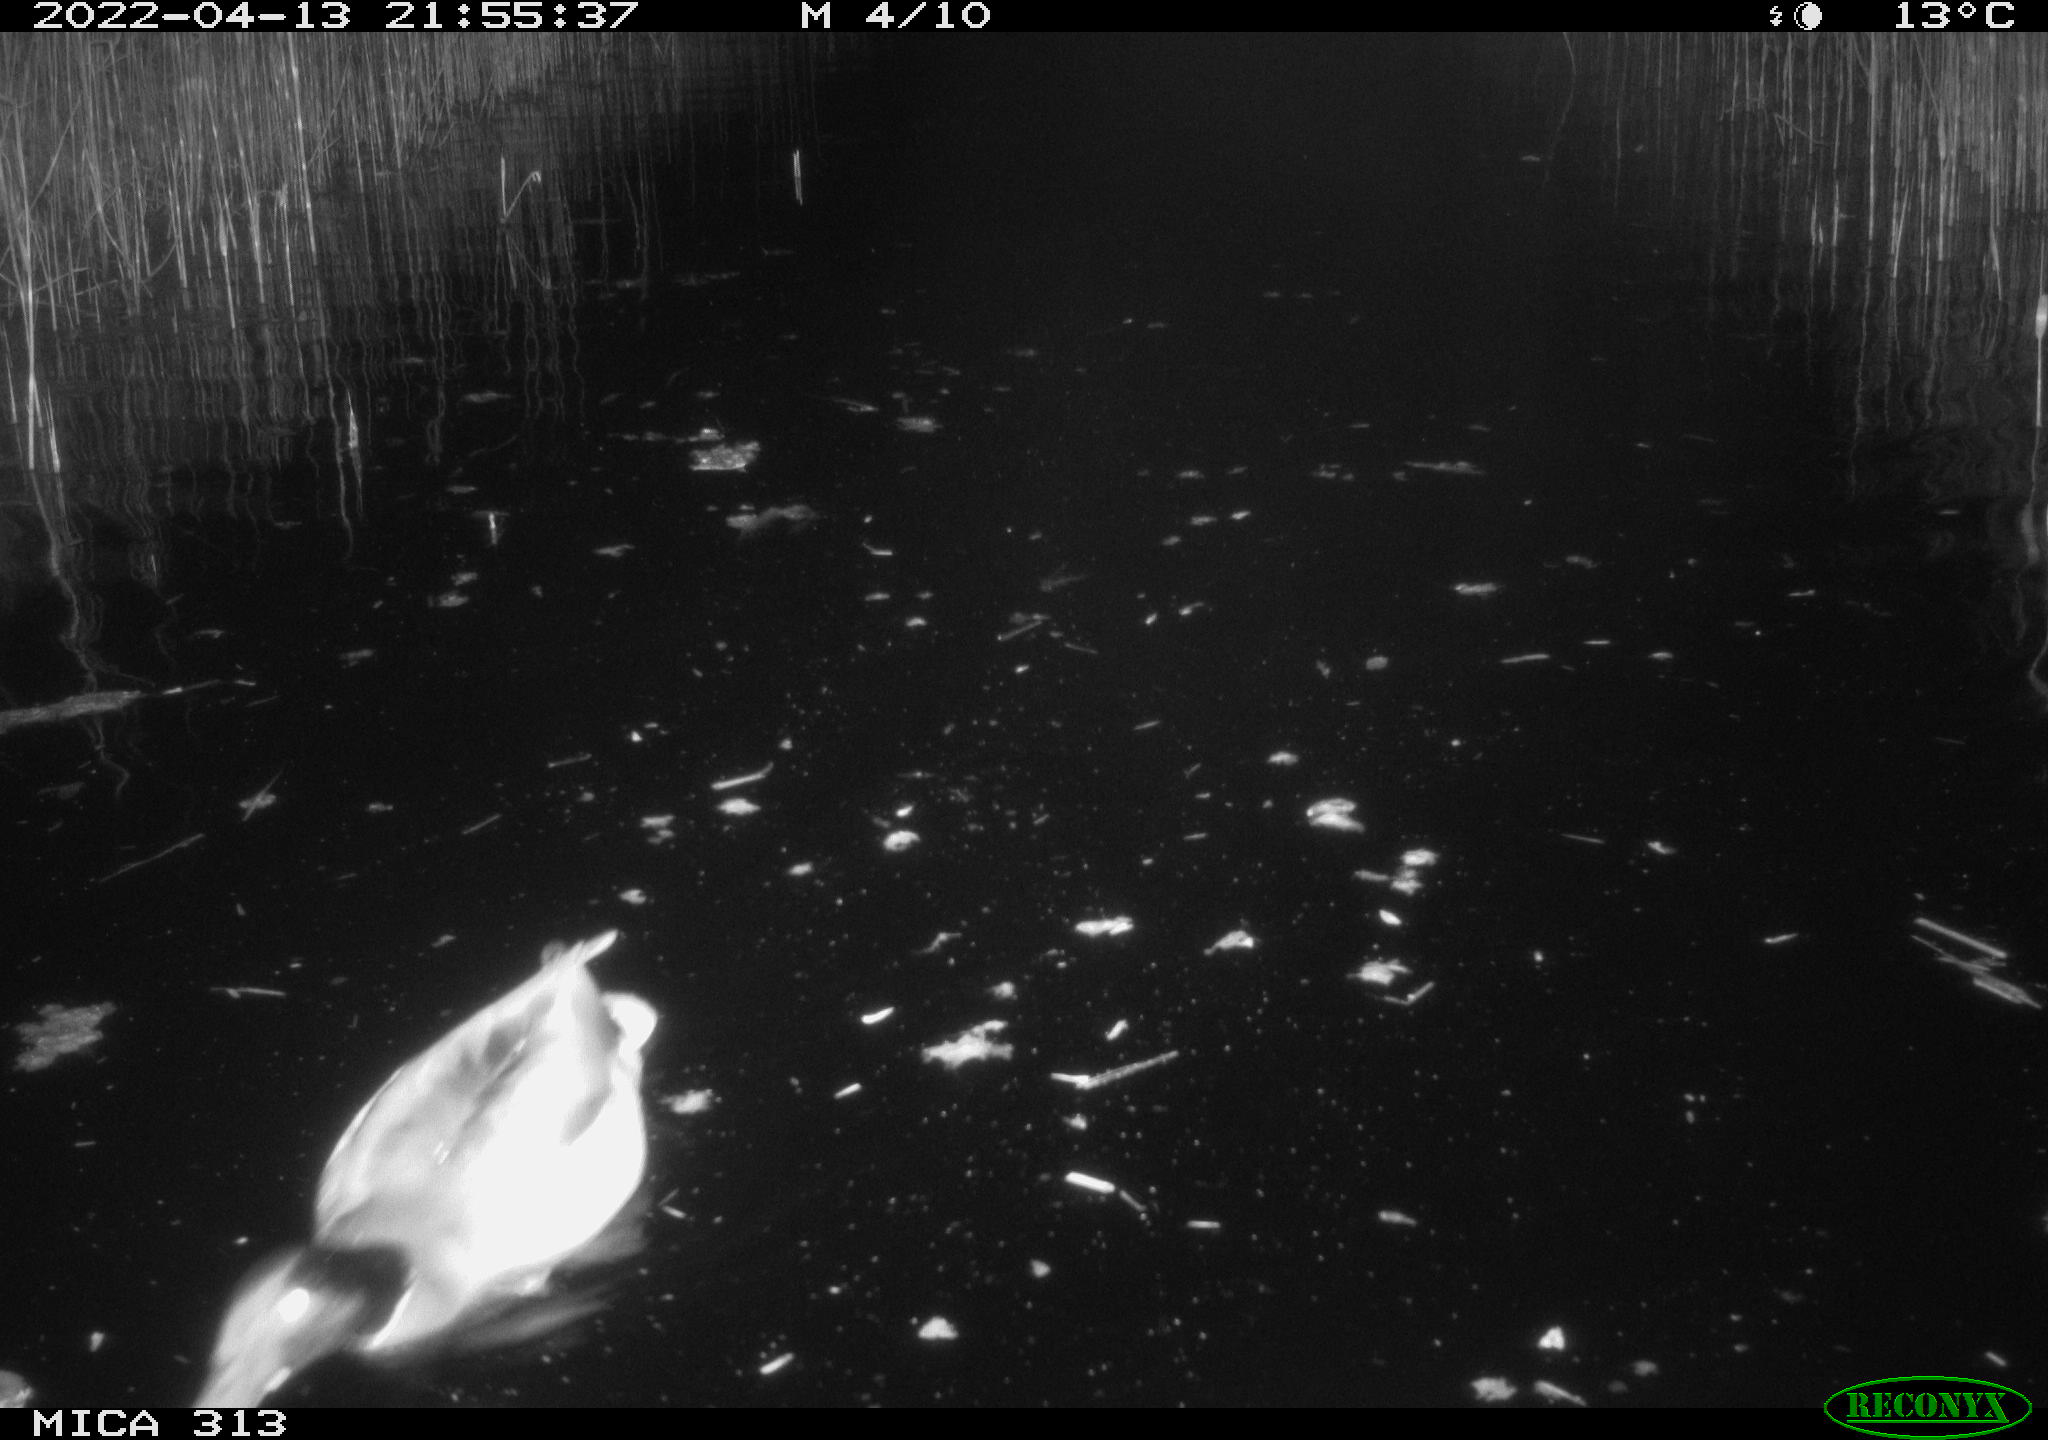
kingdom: Animalia
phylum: Chordata
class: Aves
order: Anseriformes
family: Anatidae
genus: Anas
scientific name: Anas platyrhynchos
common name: Mallard
